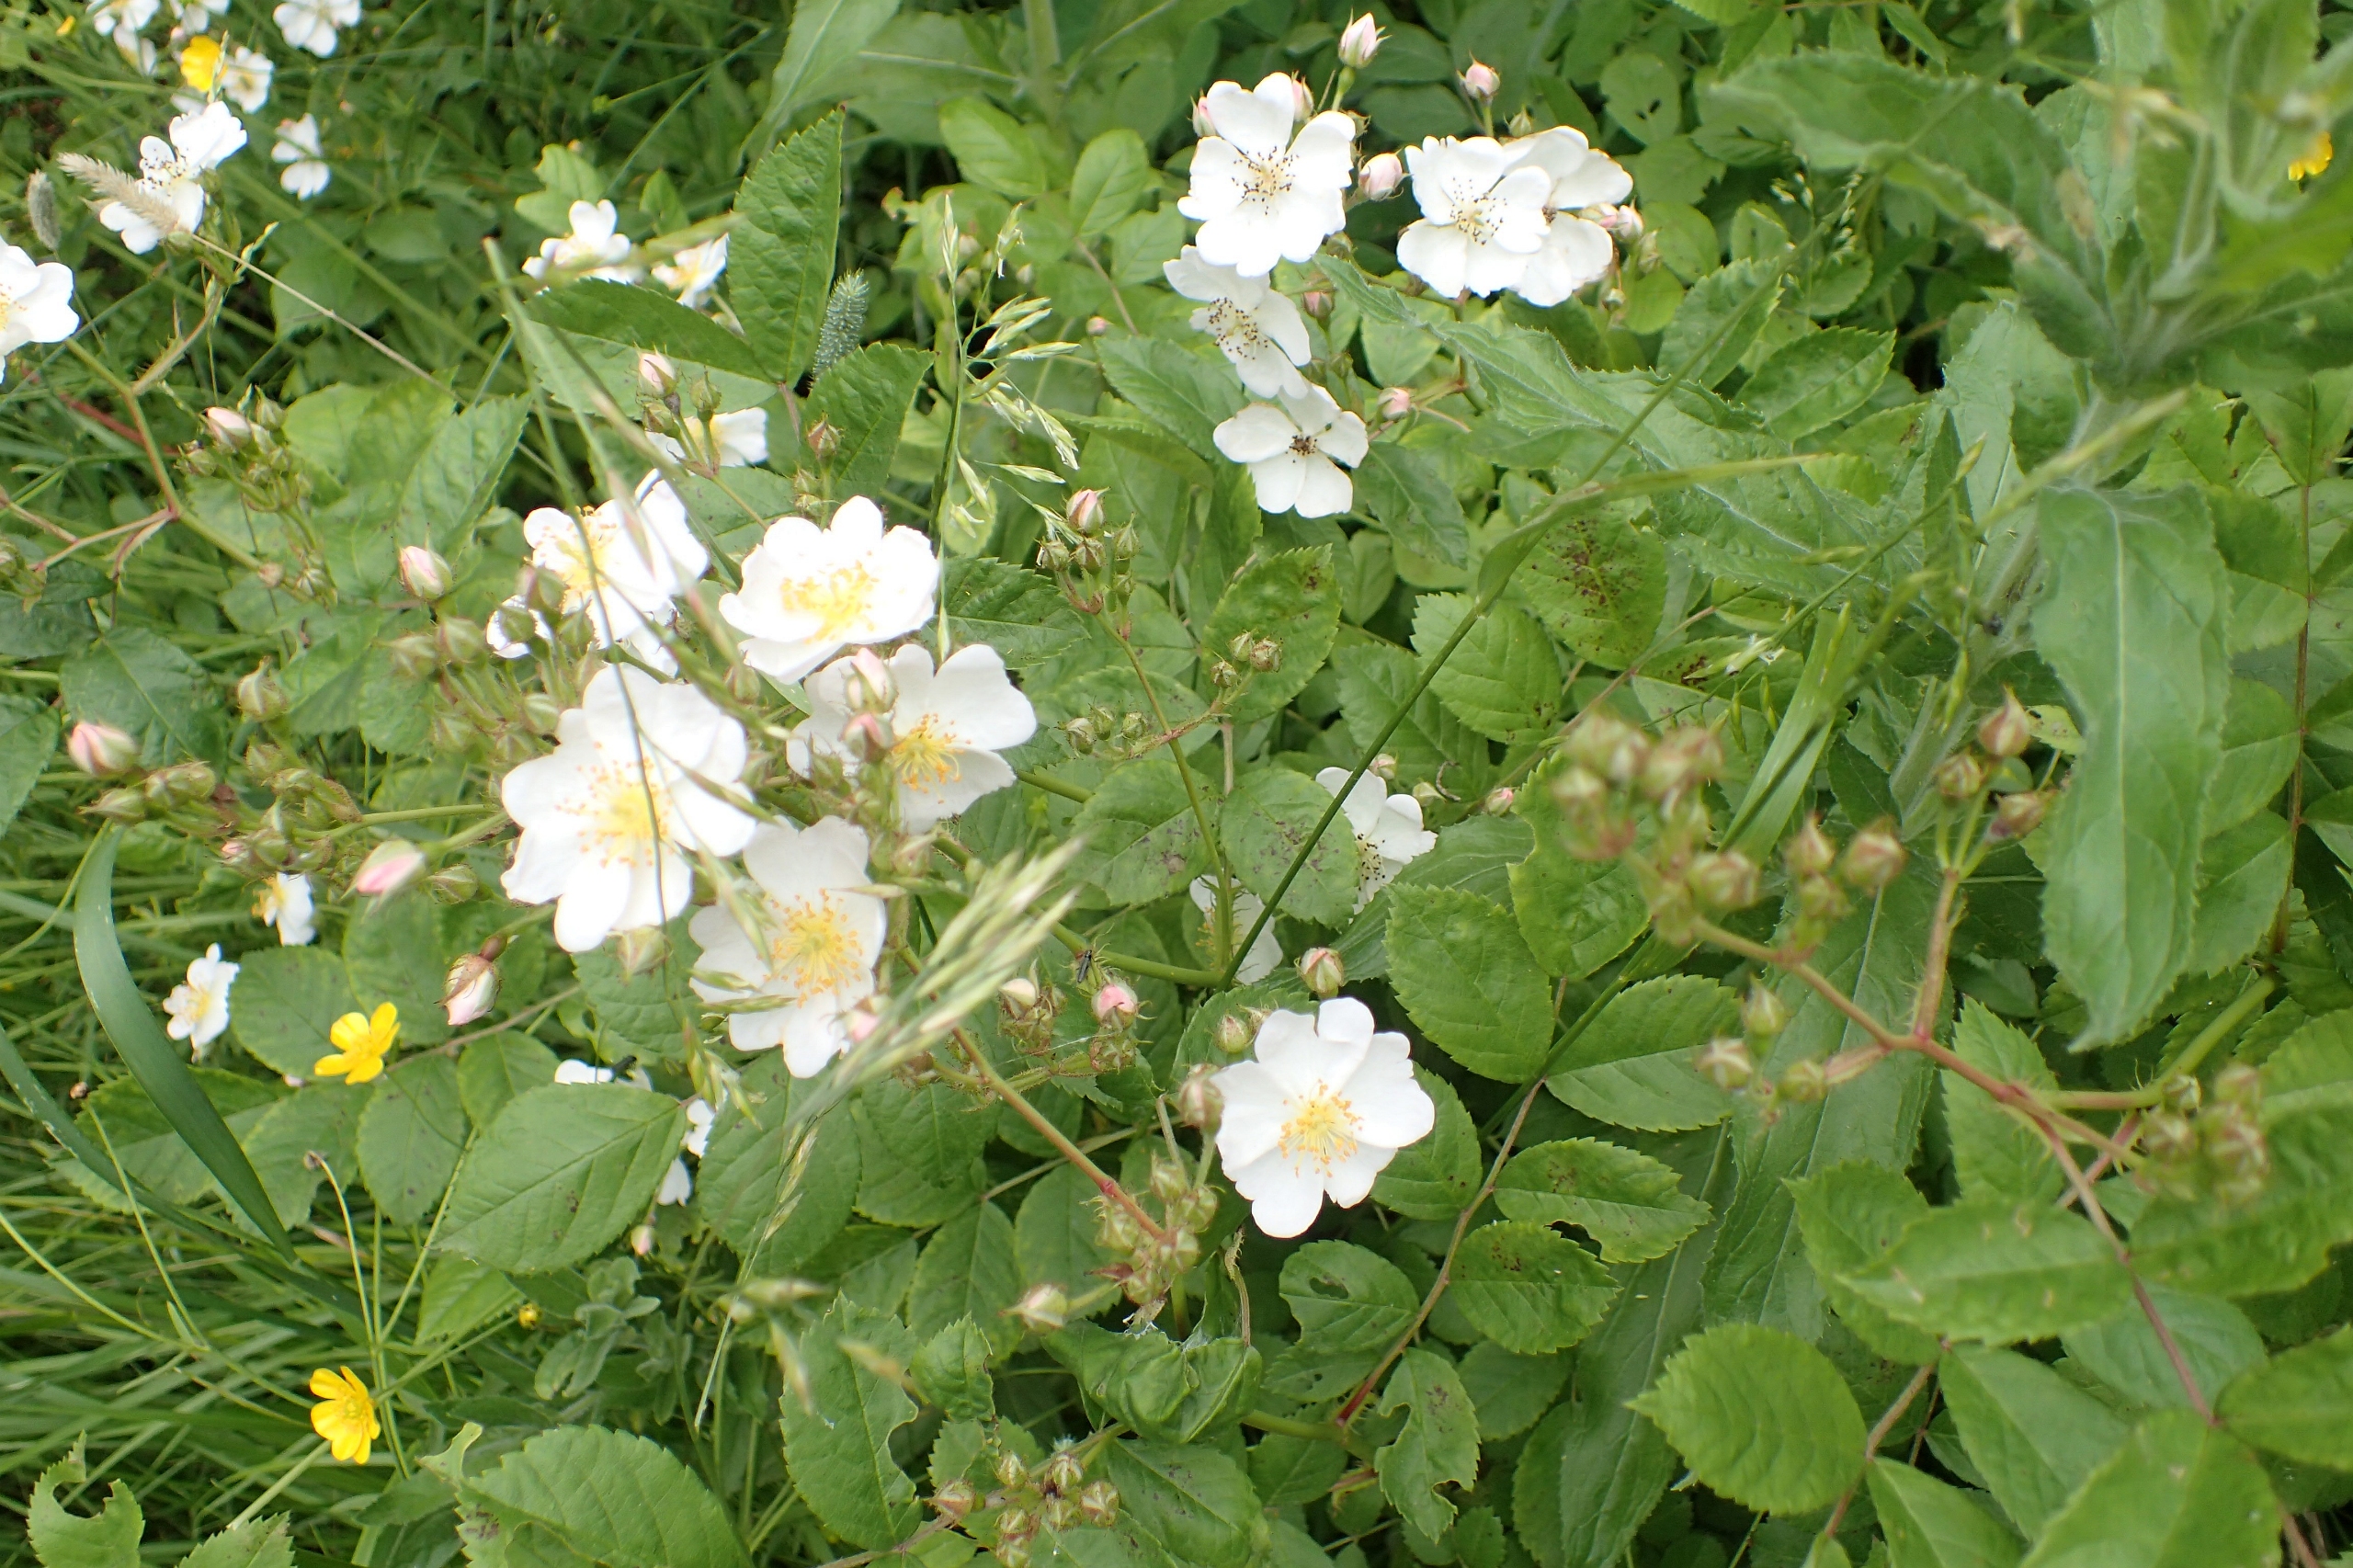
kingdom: Plantae
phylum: Tracheophyta
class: Magnoliopsida
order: Rosales
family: Rosaceae
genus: Rosa
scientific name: Rosa multiflora
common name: Mangeblomstret rose
